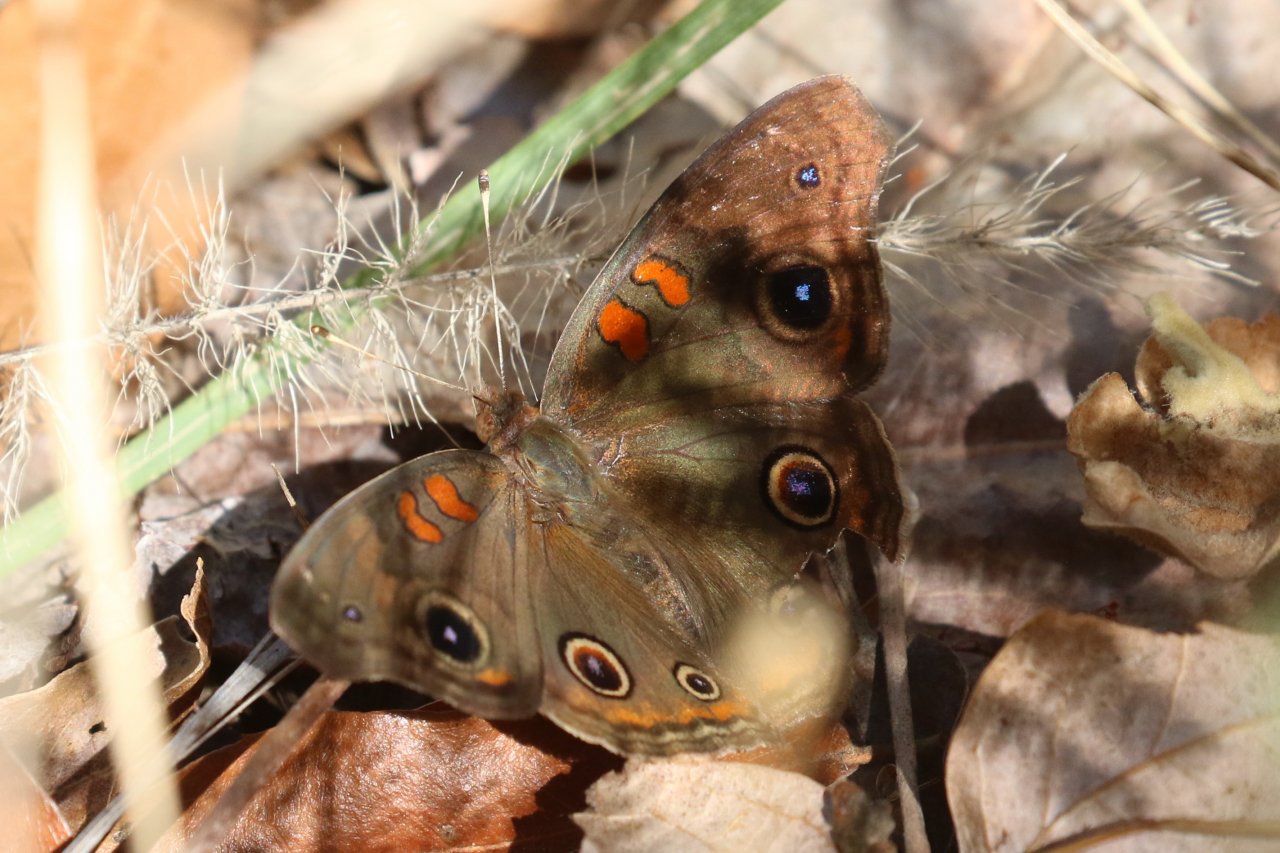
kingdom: Animalia
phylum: Arthropoda
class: Insecta
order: Lepidoptera
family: Nymphalidae
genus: Junonia
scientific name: Junonia lavinia
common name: Tropical Buckeye
